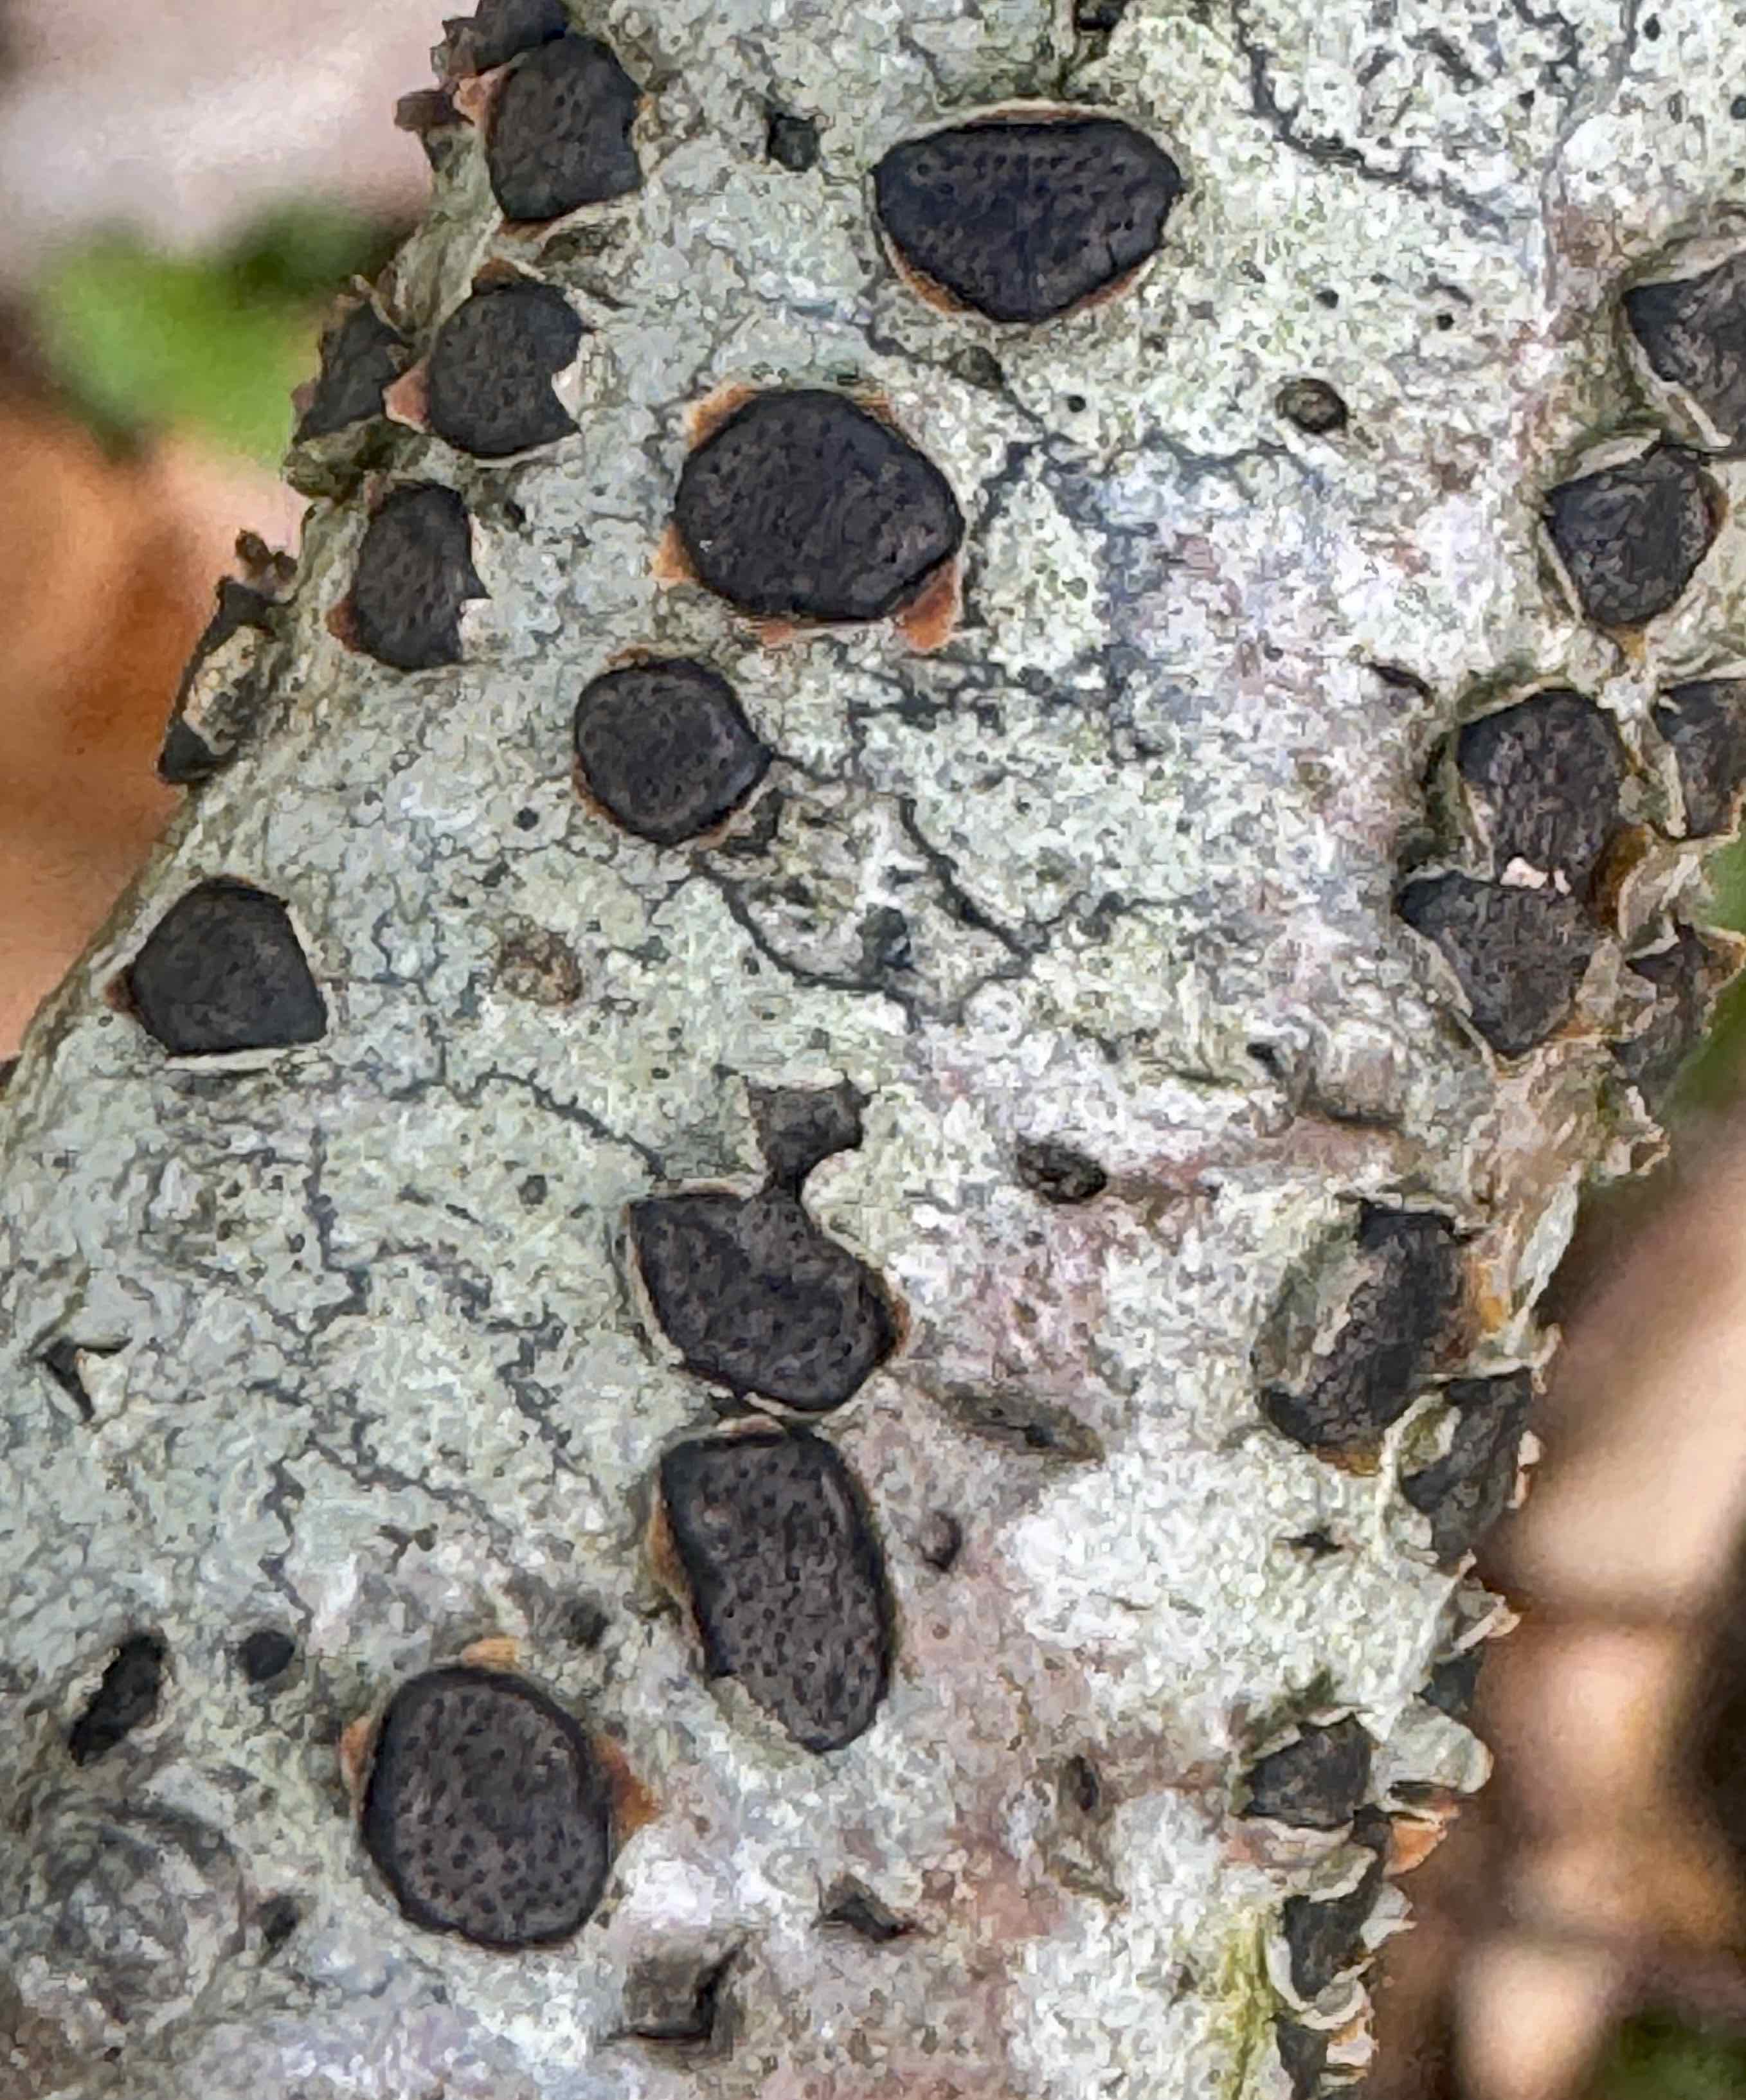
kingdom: Fungi
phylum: Ascomycota
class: Sordariomycetes
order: Xylariales
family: Diatrypaceae
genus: Diatrype
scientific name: Diatrype disciformis
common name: kant-kulskorpe
